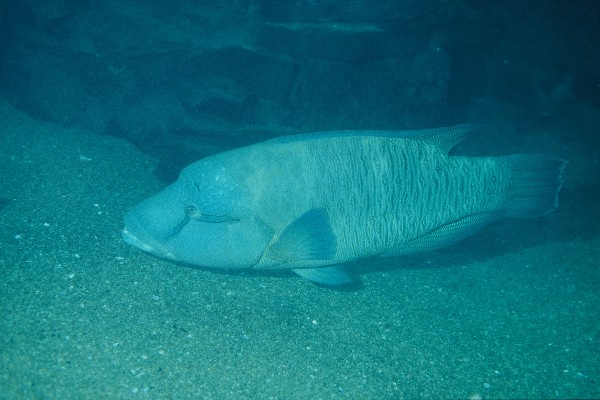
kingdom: Animalia
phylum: Chordata
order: Perciformes
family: Labridae
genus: Cheilinus
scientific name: Cheilinus undulatus
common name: Humphead wrasse
